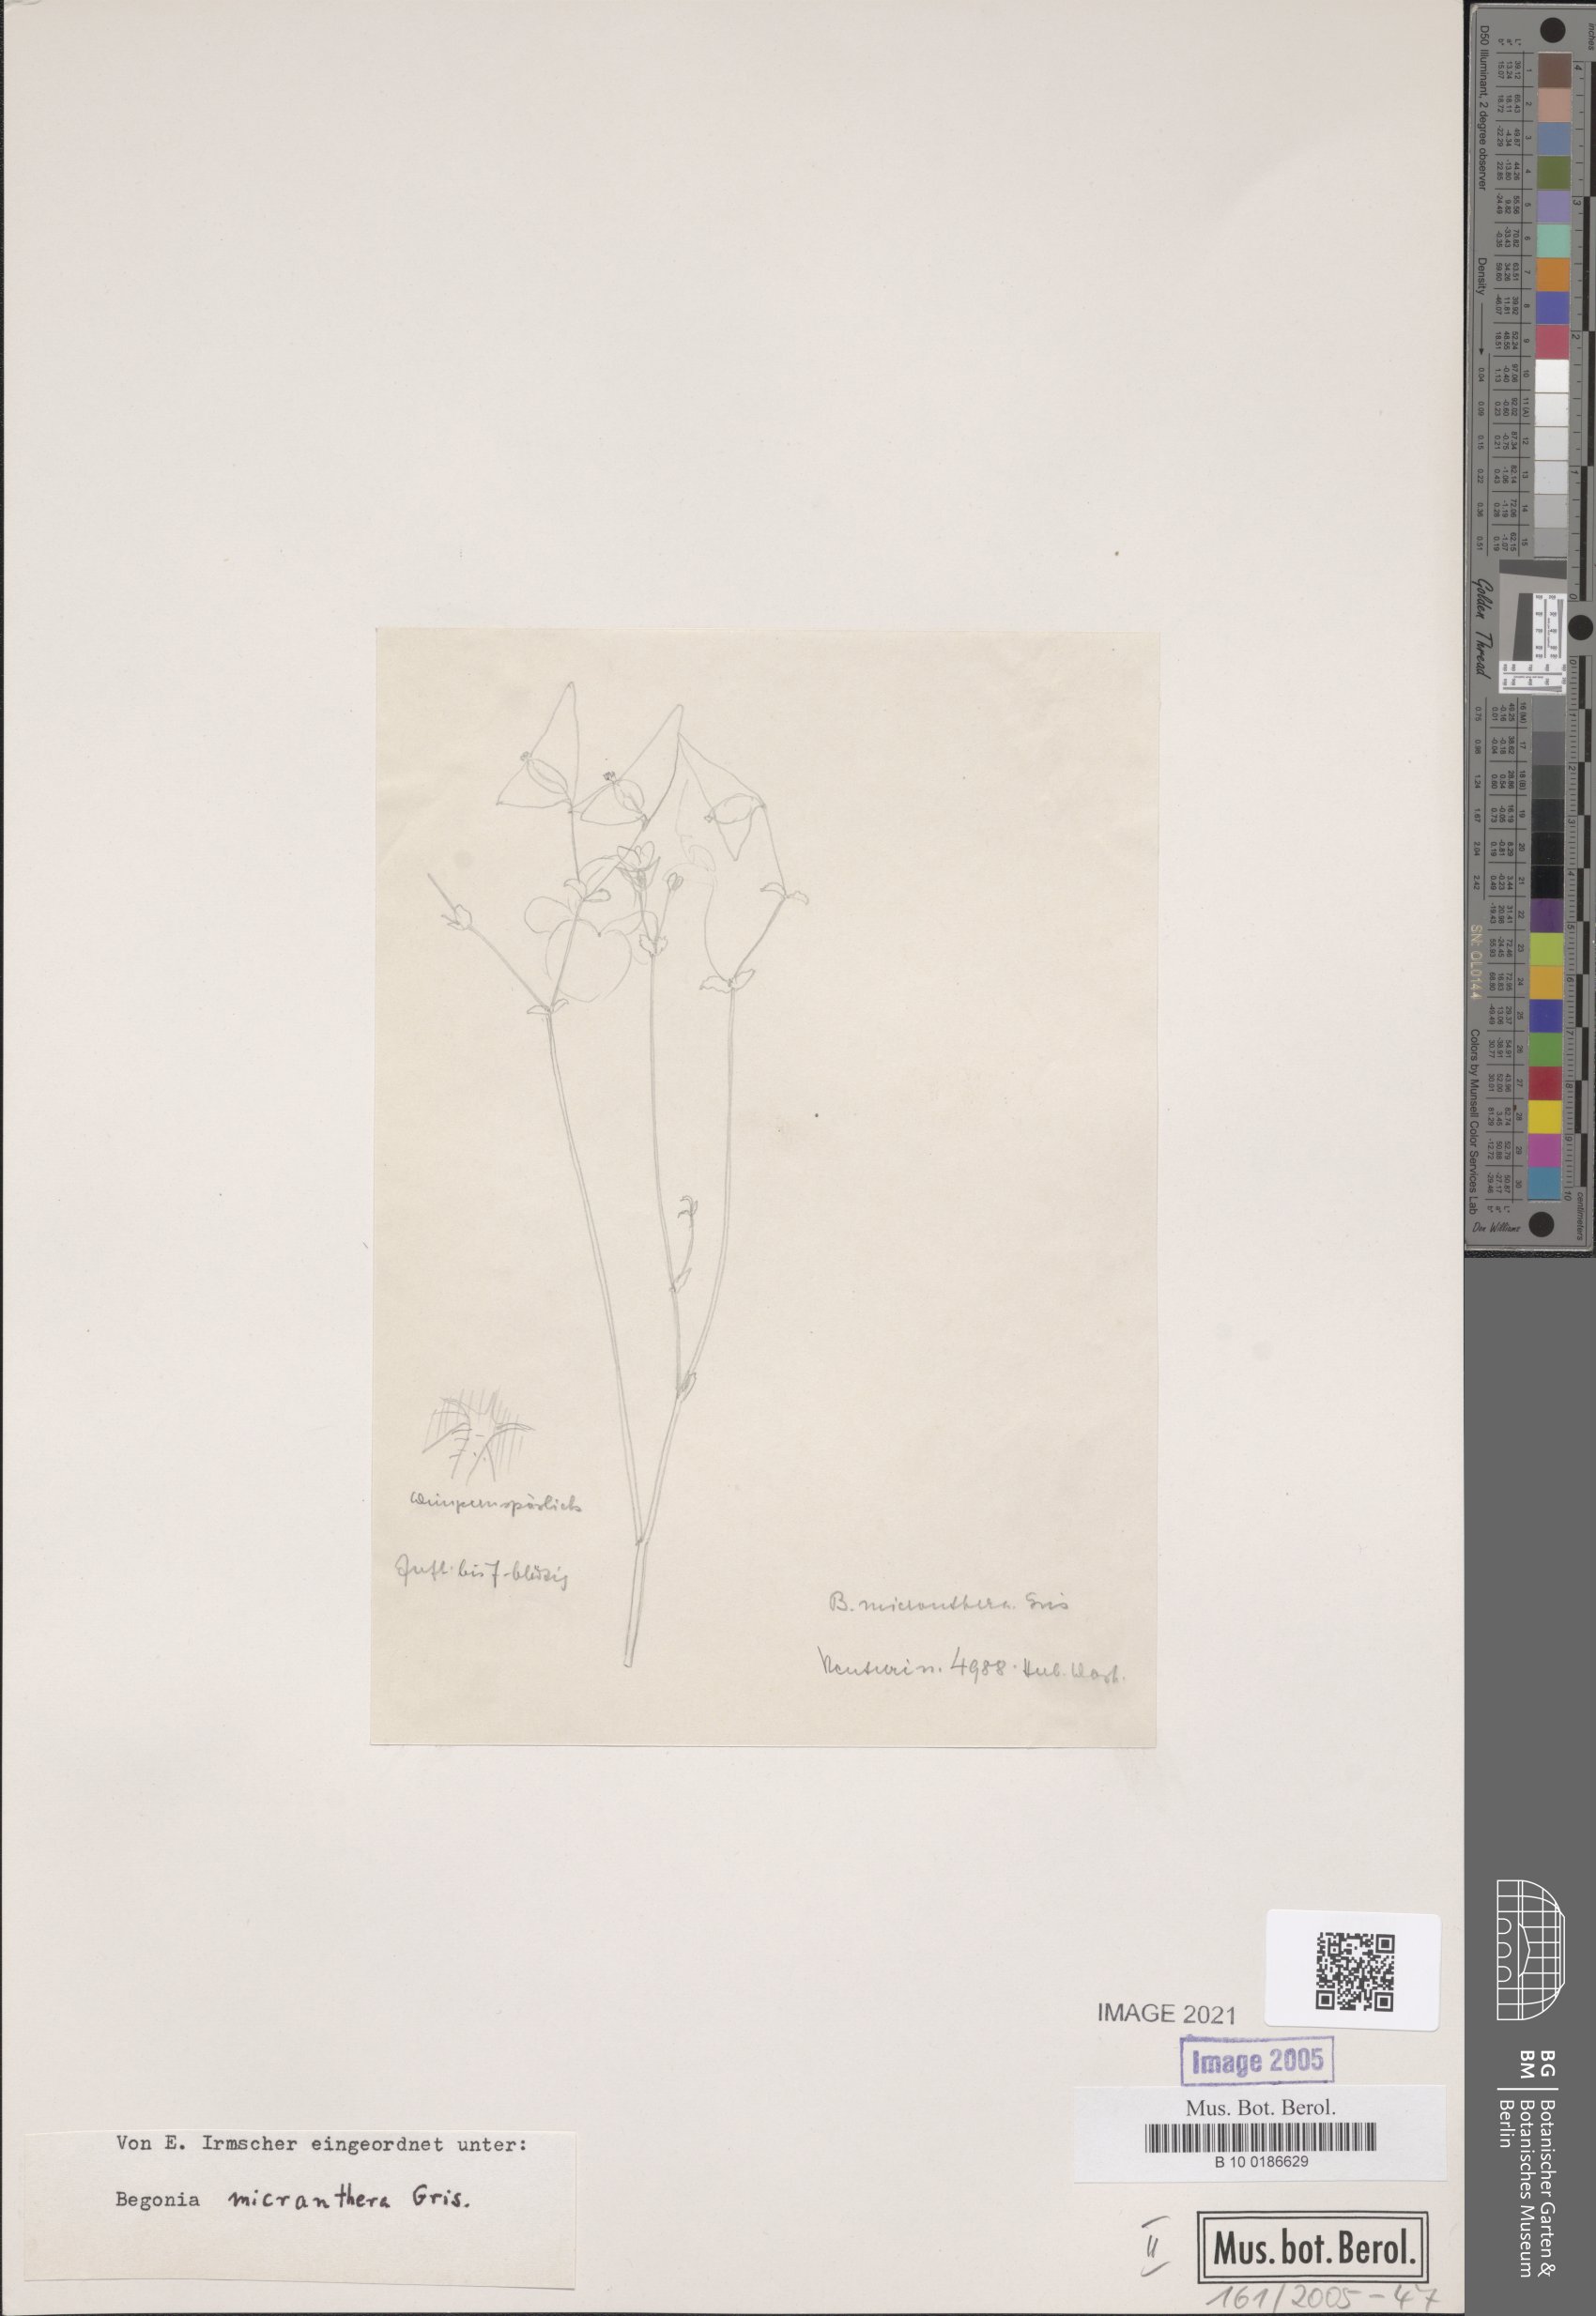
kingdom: Plantae
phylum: Tracheophyta
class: Magnoliopsida
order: Cucurbitales
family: Begoniaceae
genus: Begonia
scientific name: Begonia micranthera
